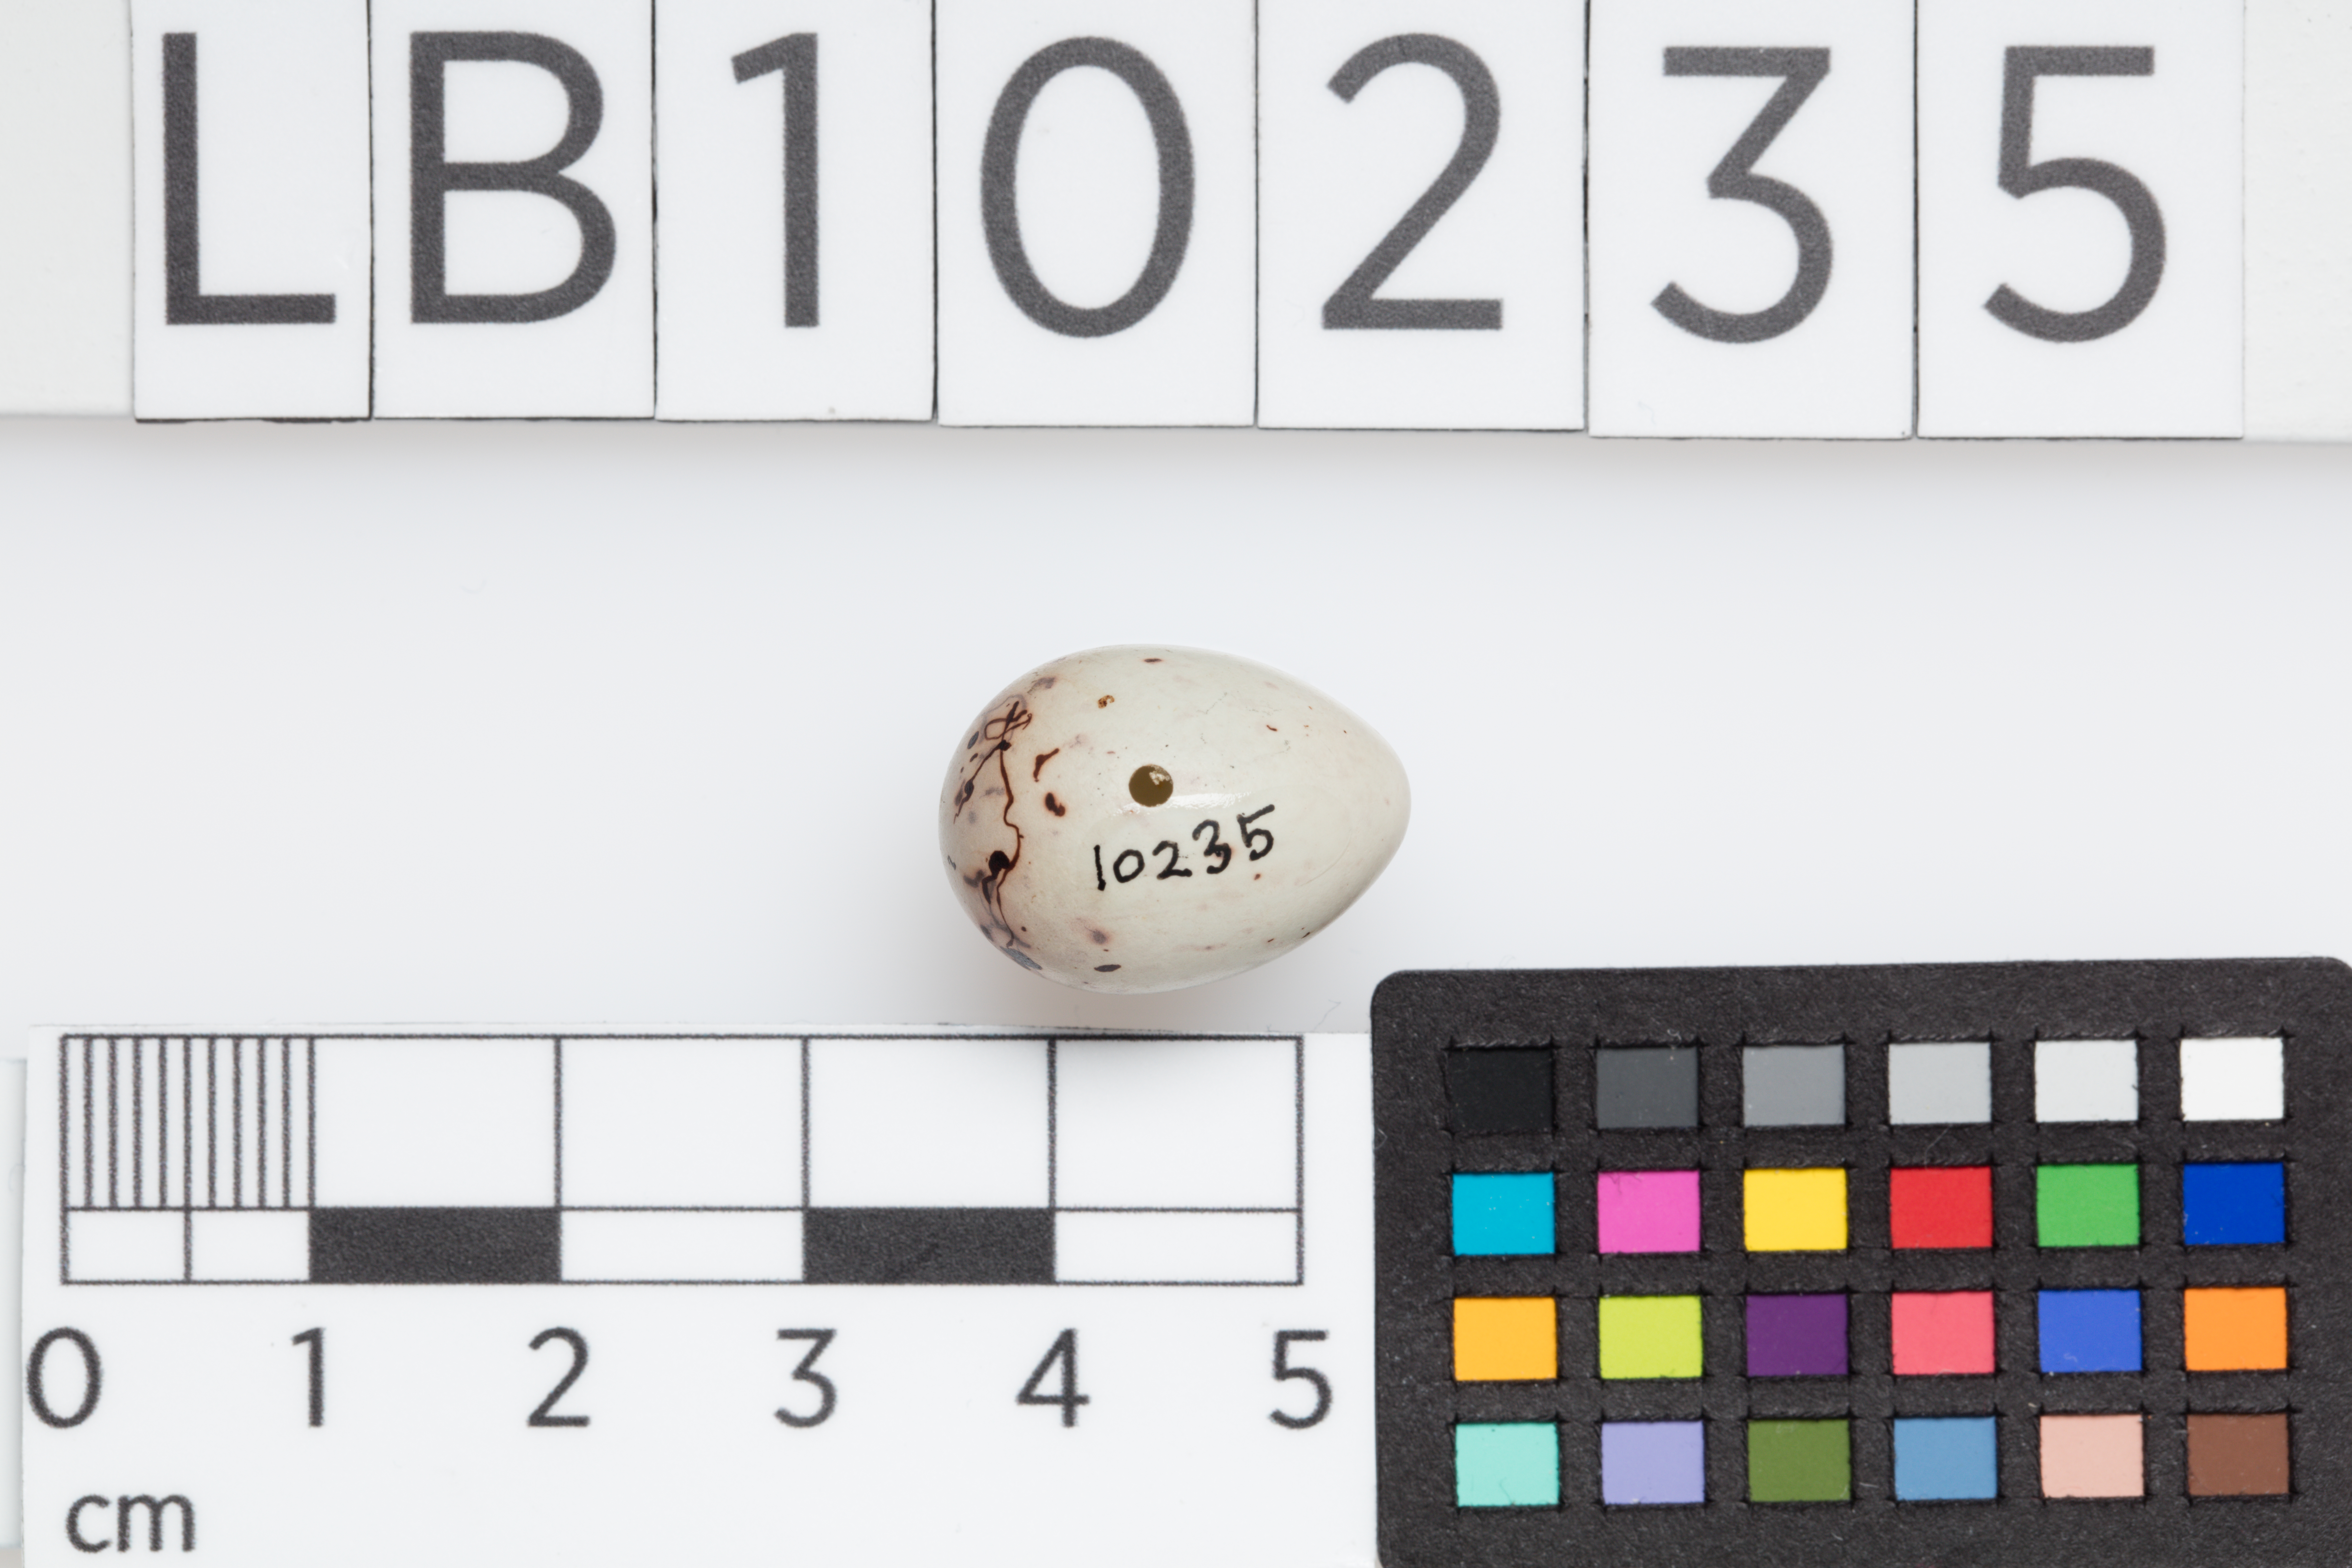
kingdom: Animalia
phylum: Chordata
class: Aves
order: Passeriformes
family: Fringillidae
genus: Pyrrhula
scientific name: Pyrrhula pyrrhula
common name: Eurasian bullfinch
